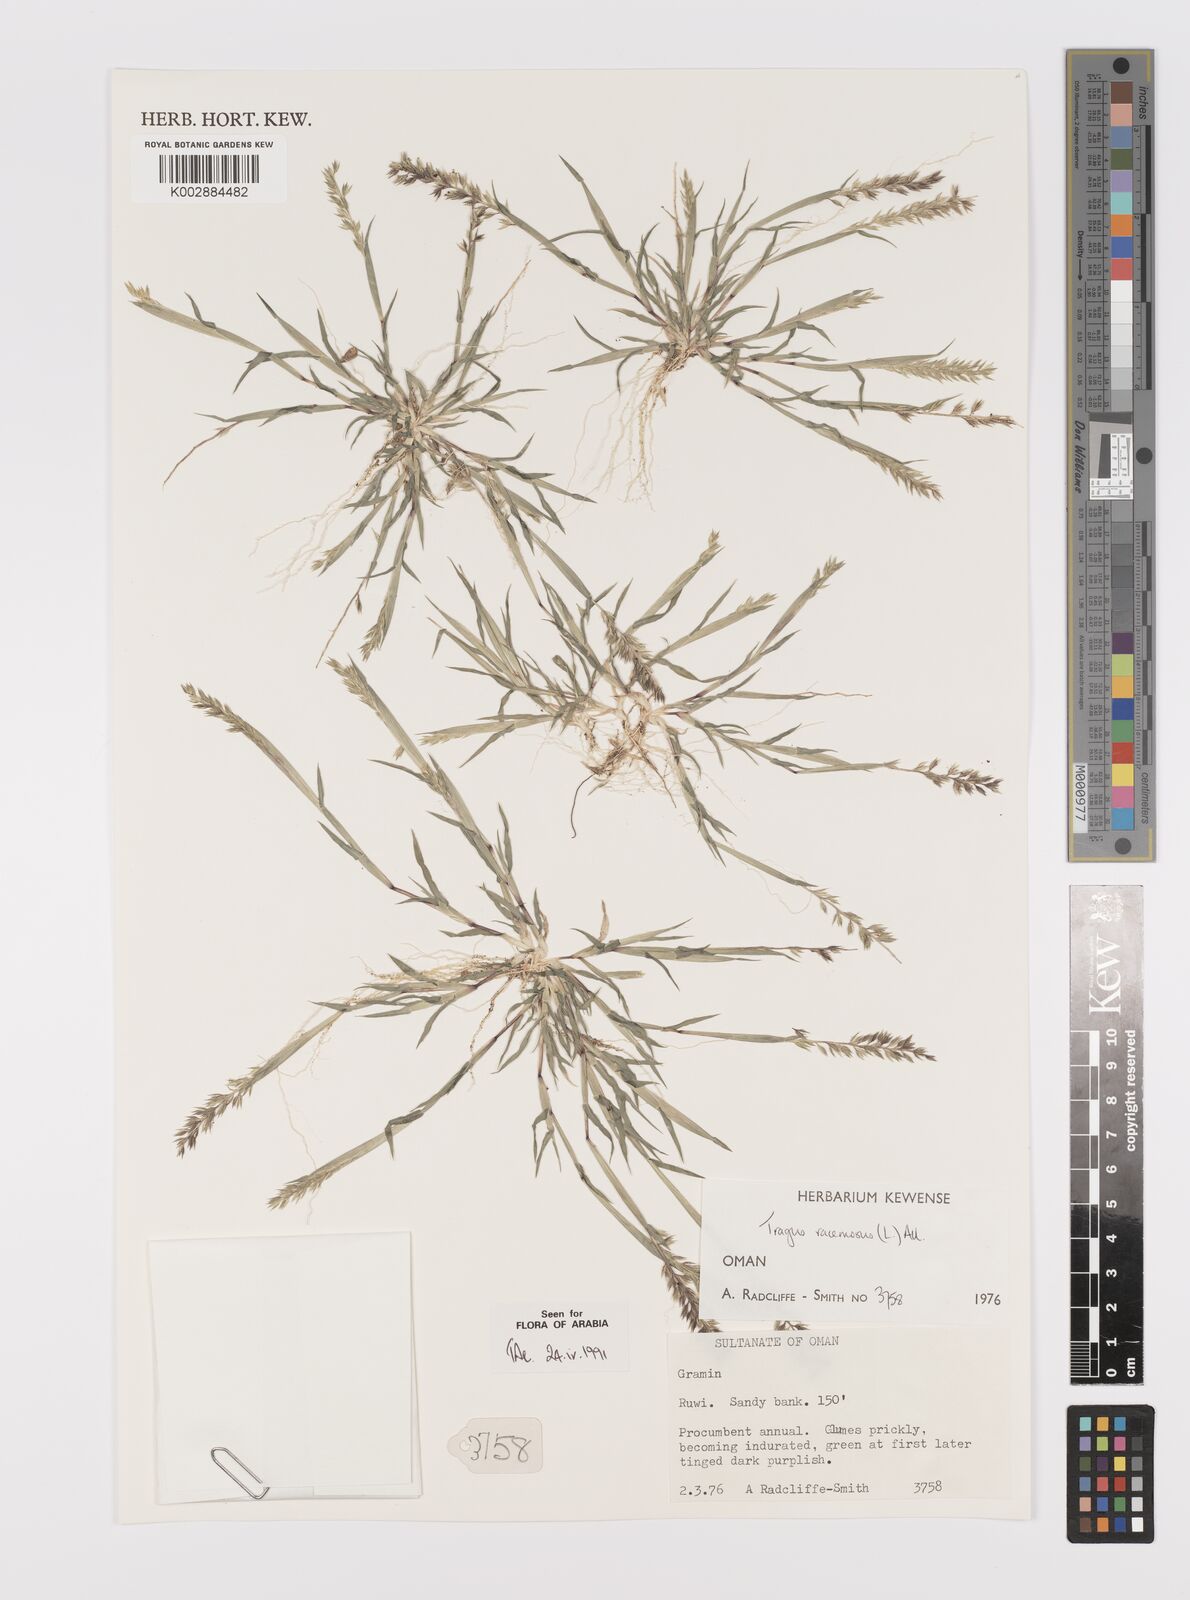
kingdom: Plantae
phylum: Tracheophyta
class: Liliopsida
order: Poales
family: Poaceae
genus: Tragus
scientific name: Tragus racemosus
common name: European bur-grass
